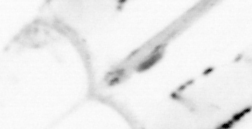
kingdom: Animalia
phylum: Chaetognatha
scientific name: Chaetognatha
